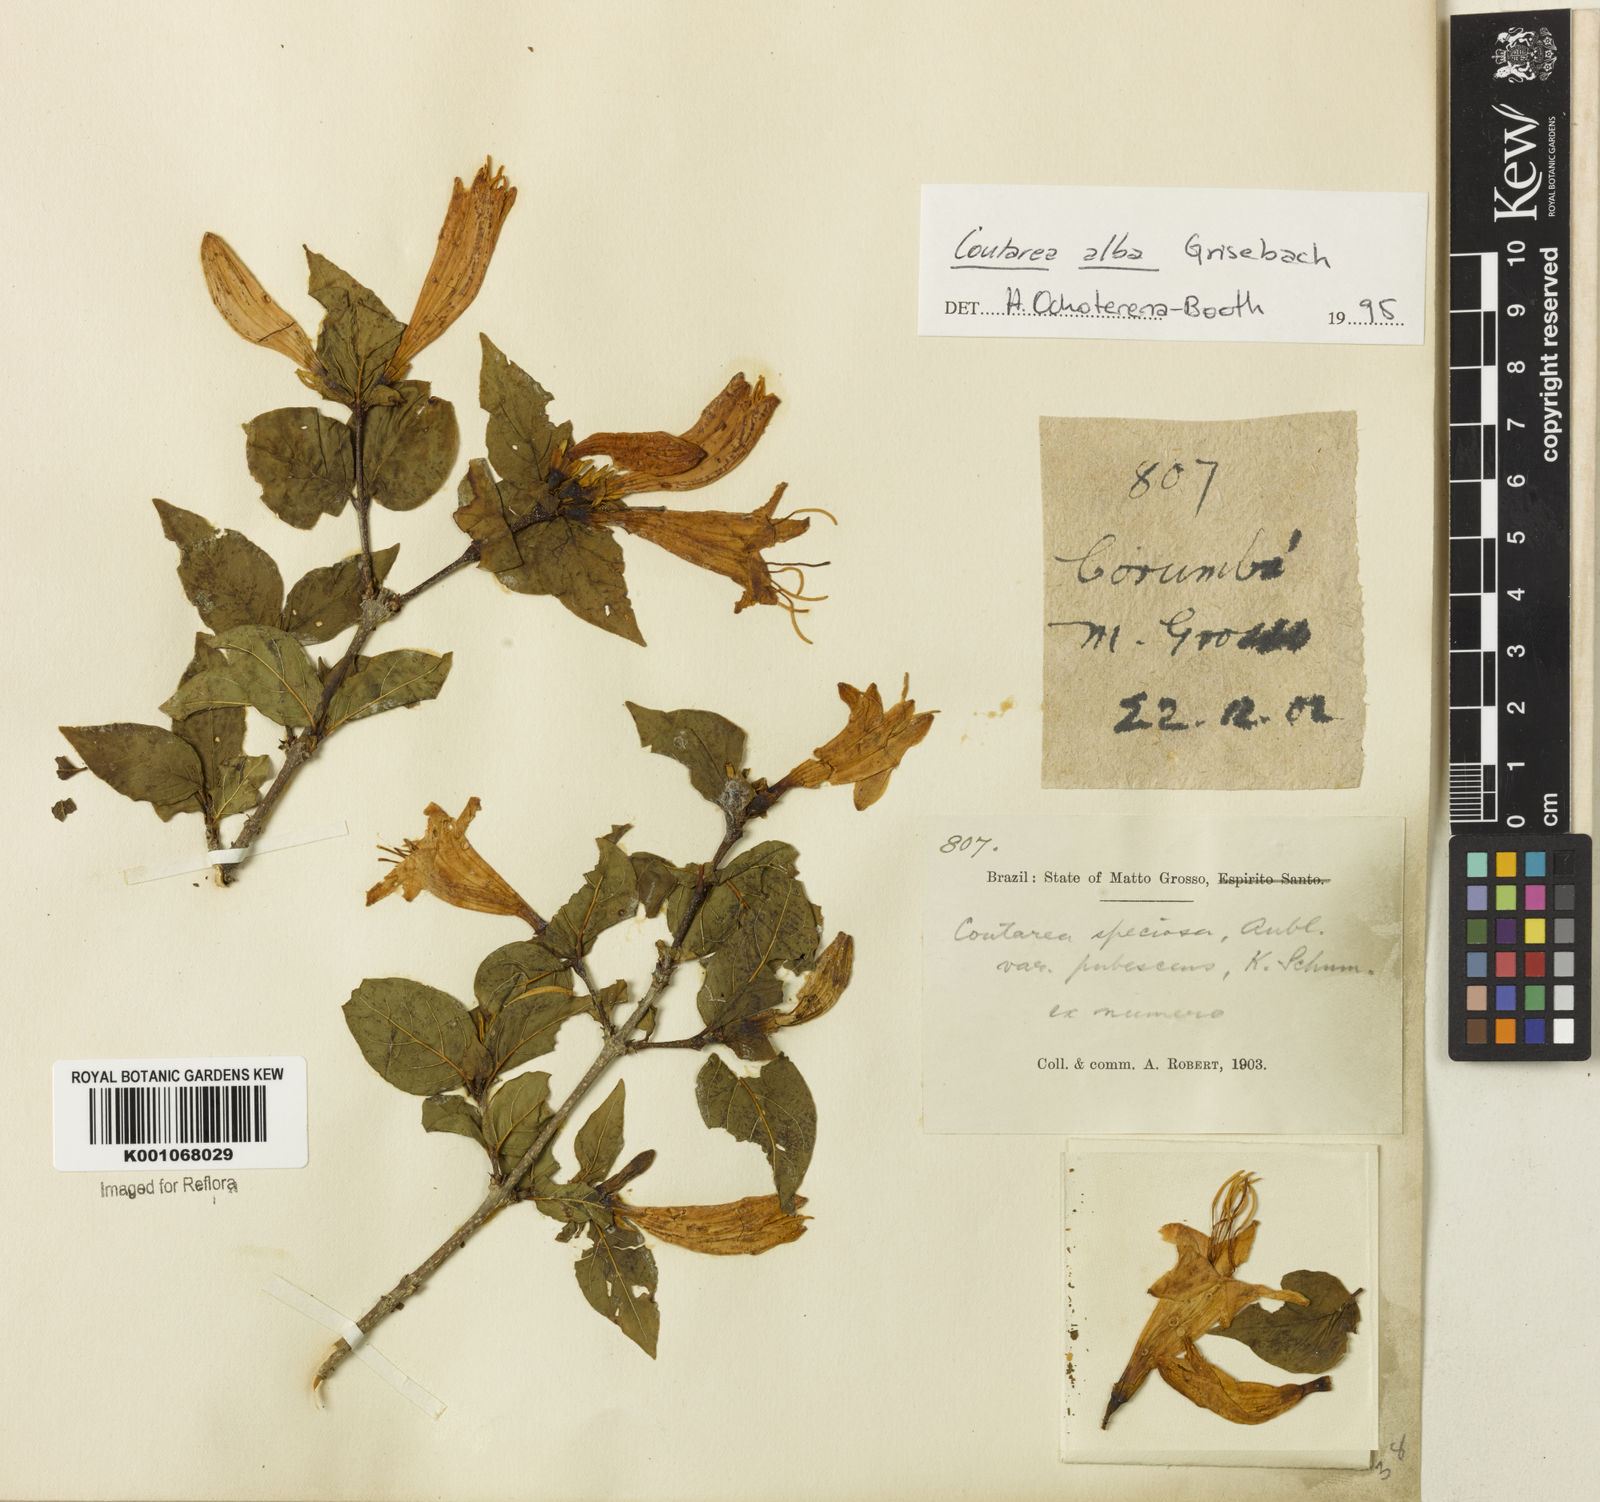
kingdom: Plantae
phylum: Tracheophyta
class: Magnoliopsida
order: Gentianales
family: Rubiaceae
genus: Coutarea
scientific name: Coutarea alba
